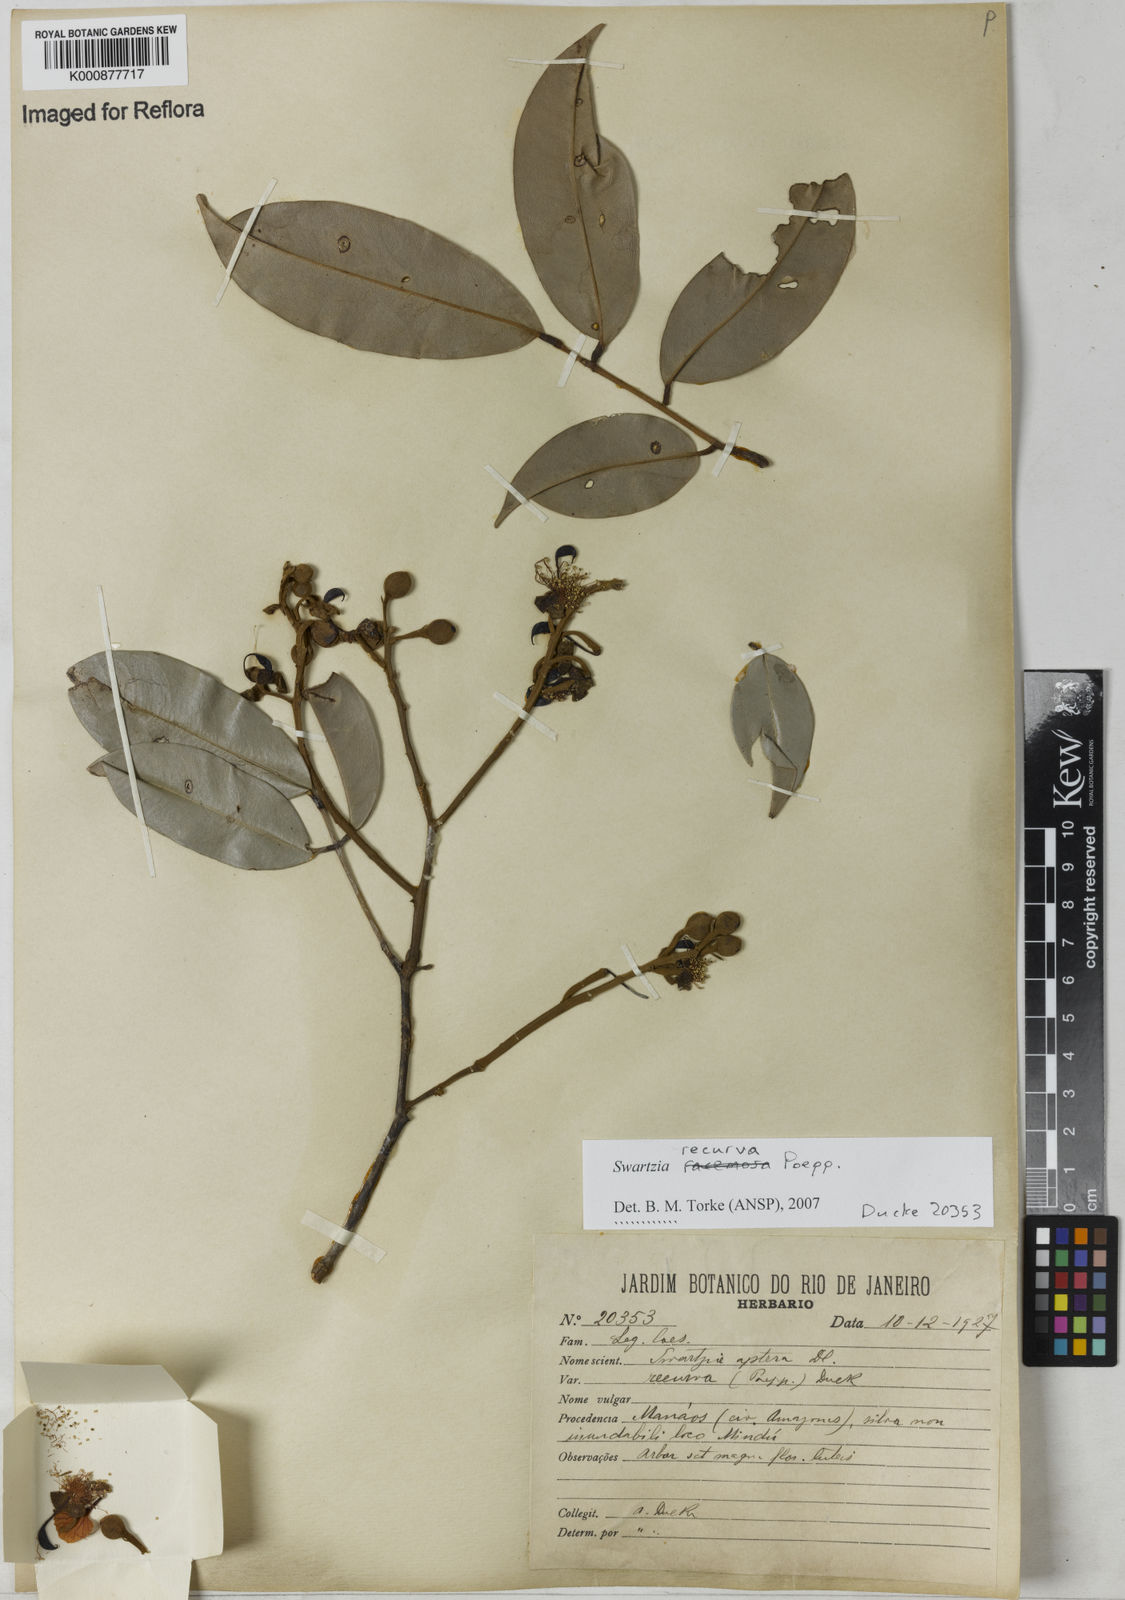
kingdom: Plantae
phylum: Tracheophyta
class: Magnoliopsida
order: Fabales
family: Fabaceae
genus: Swartzia
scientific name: Swartzia recurva
